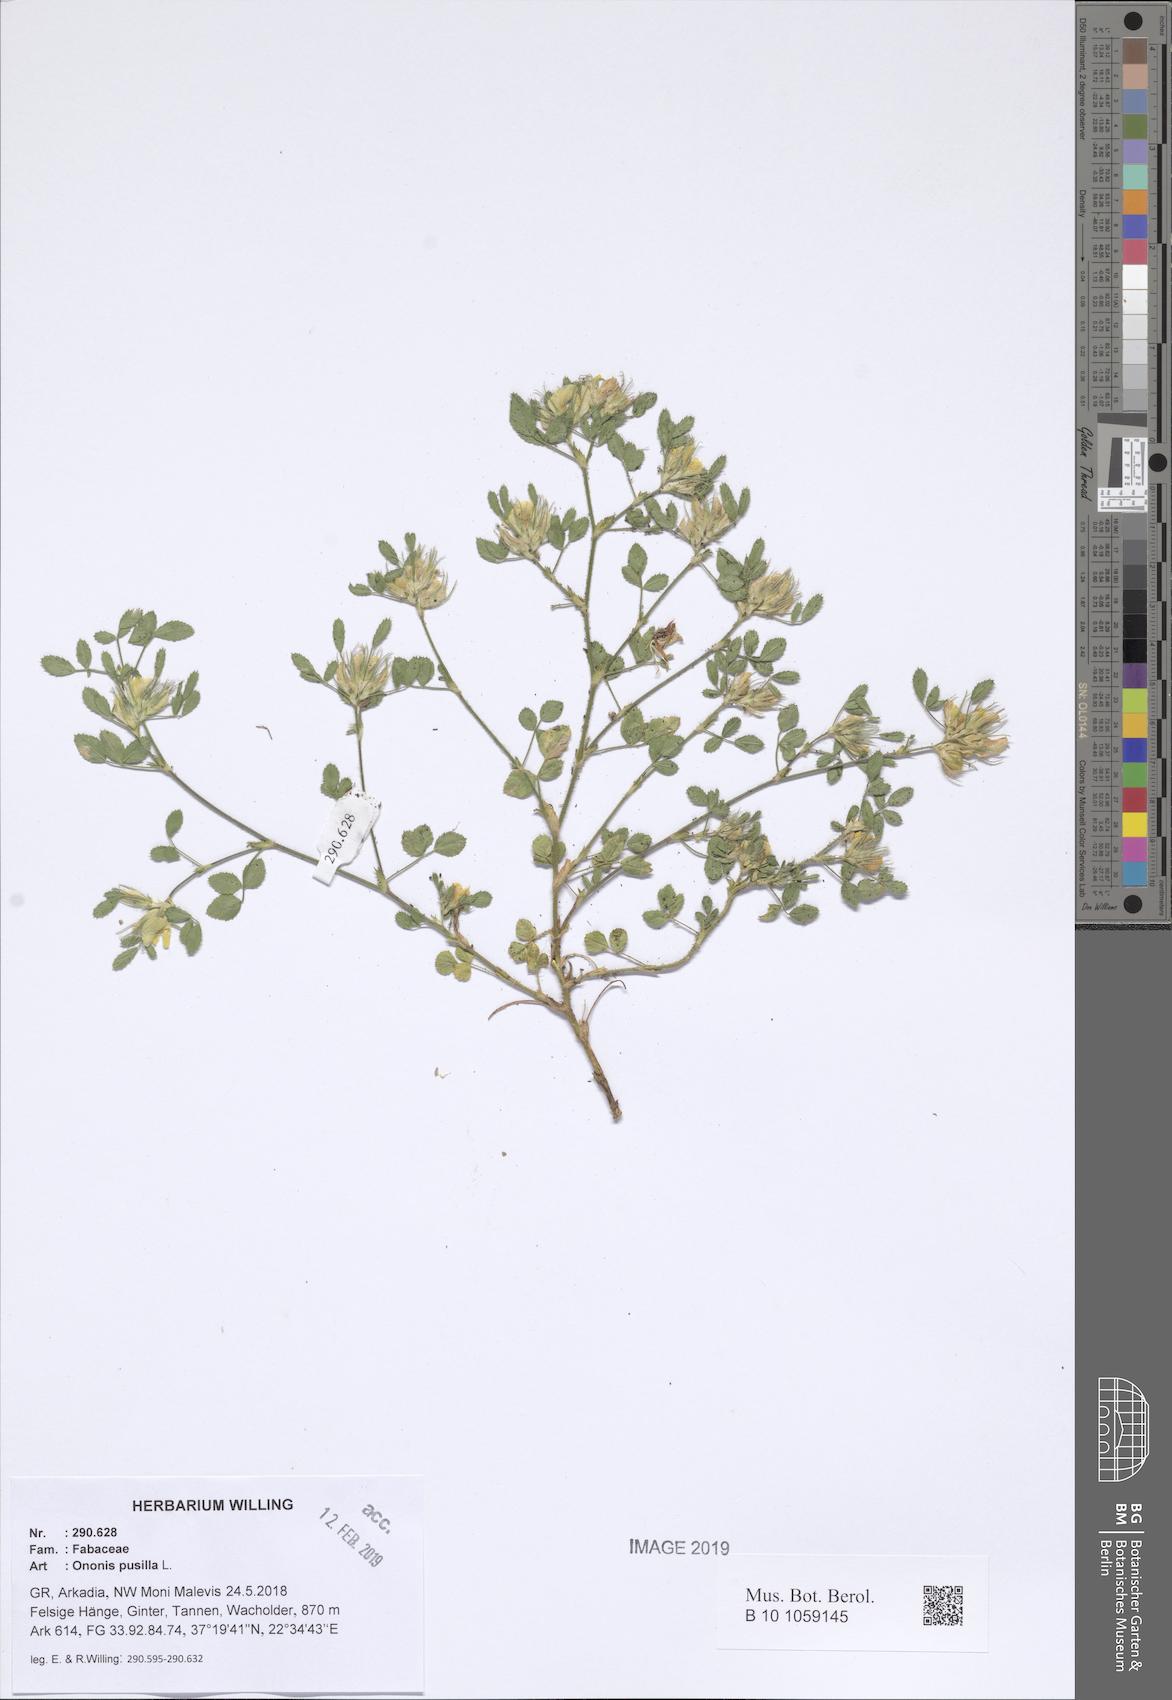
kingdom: Plantae
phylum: Tracheophyta
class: Magnoliopsida
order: Fabales
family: Fabaceae
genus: Ononis
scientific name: Ononis pusilla
